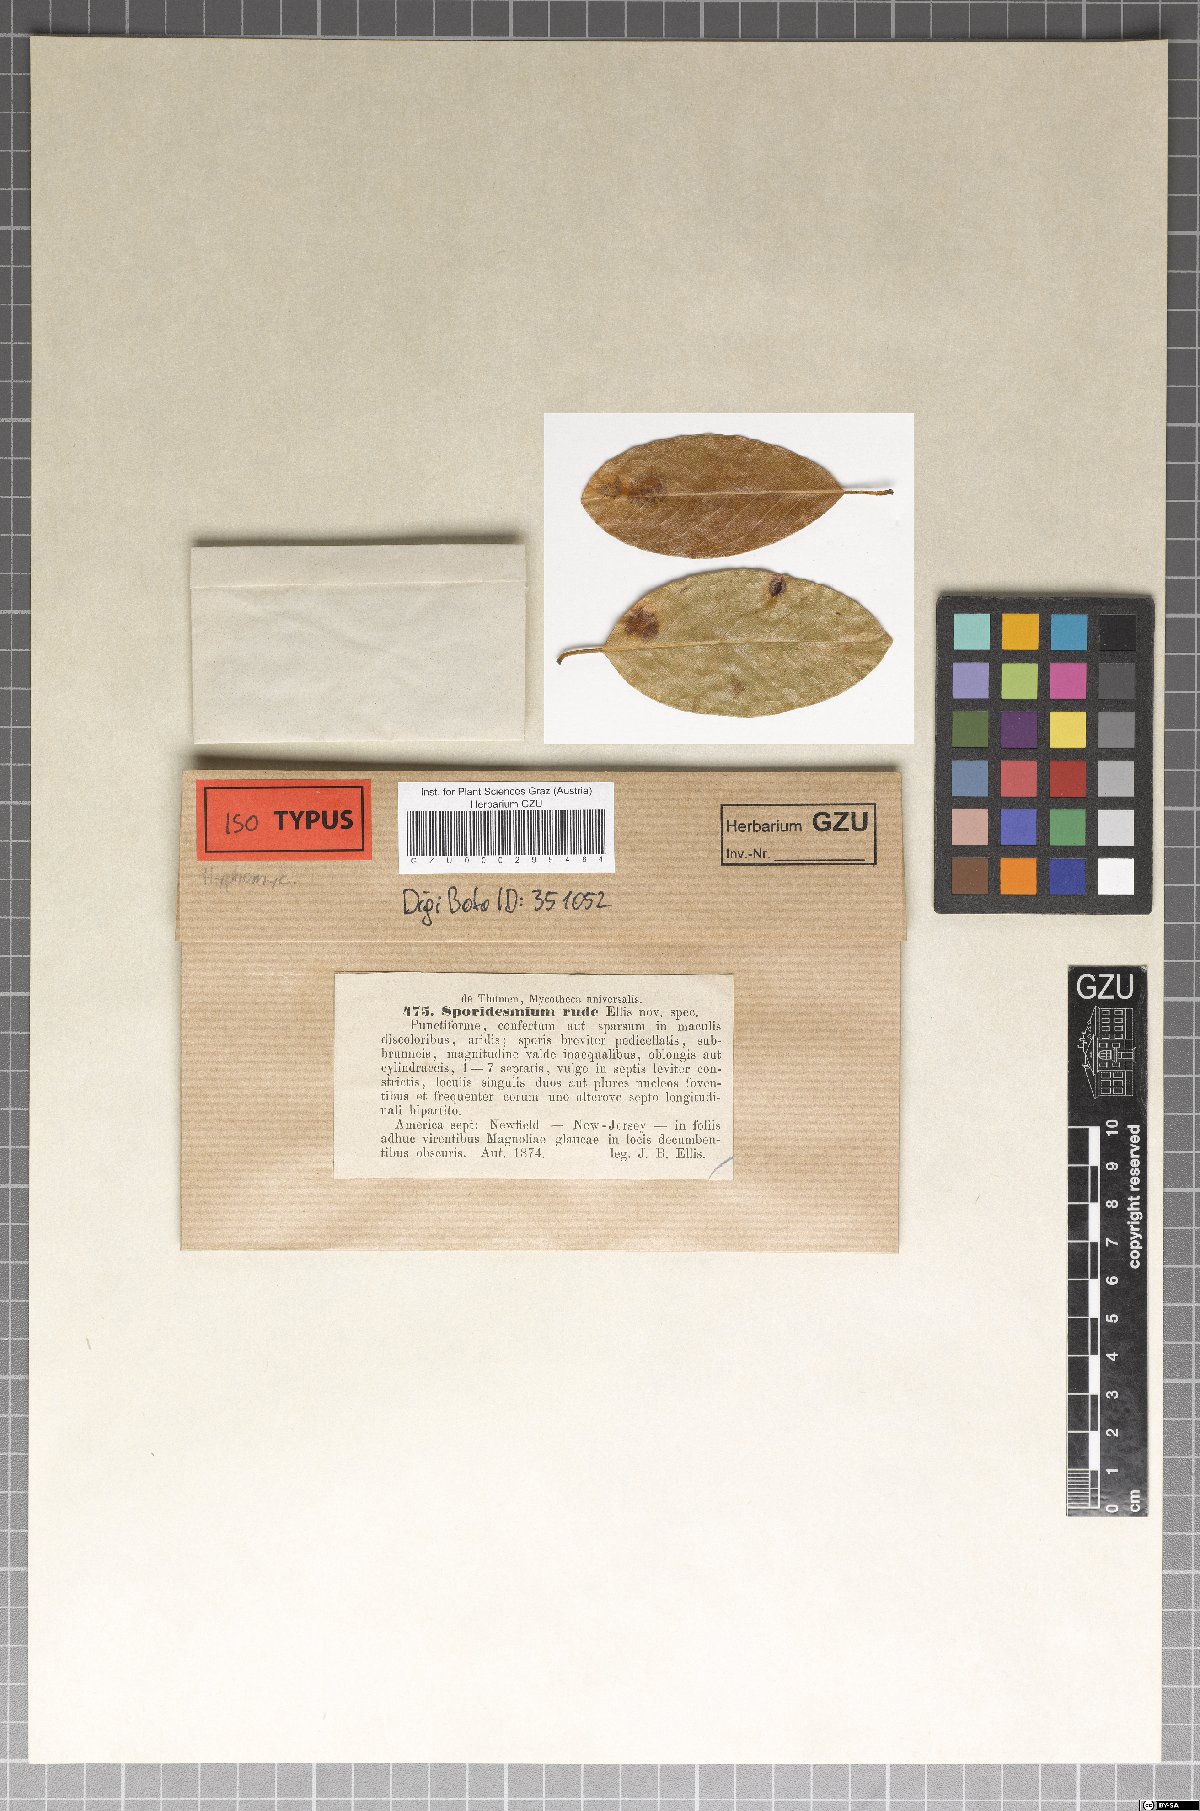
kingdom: Fungi
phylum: Ascomycota
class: Dothideomycetes
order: Pleosporales
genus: Sporidesmium
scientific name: Sporidesmium
